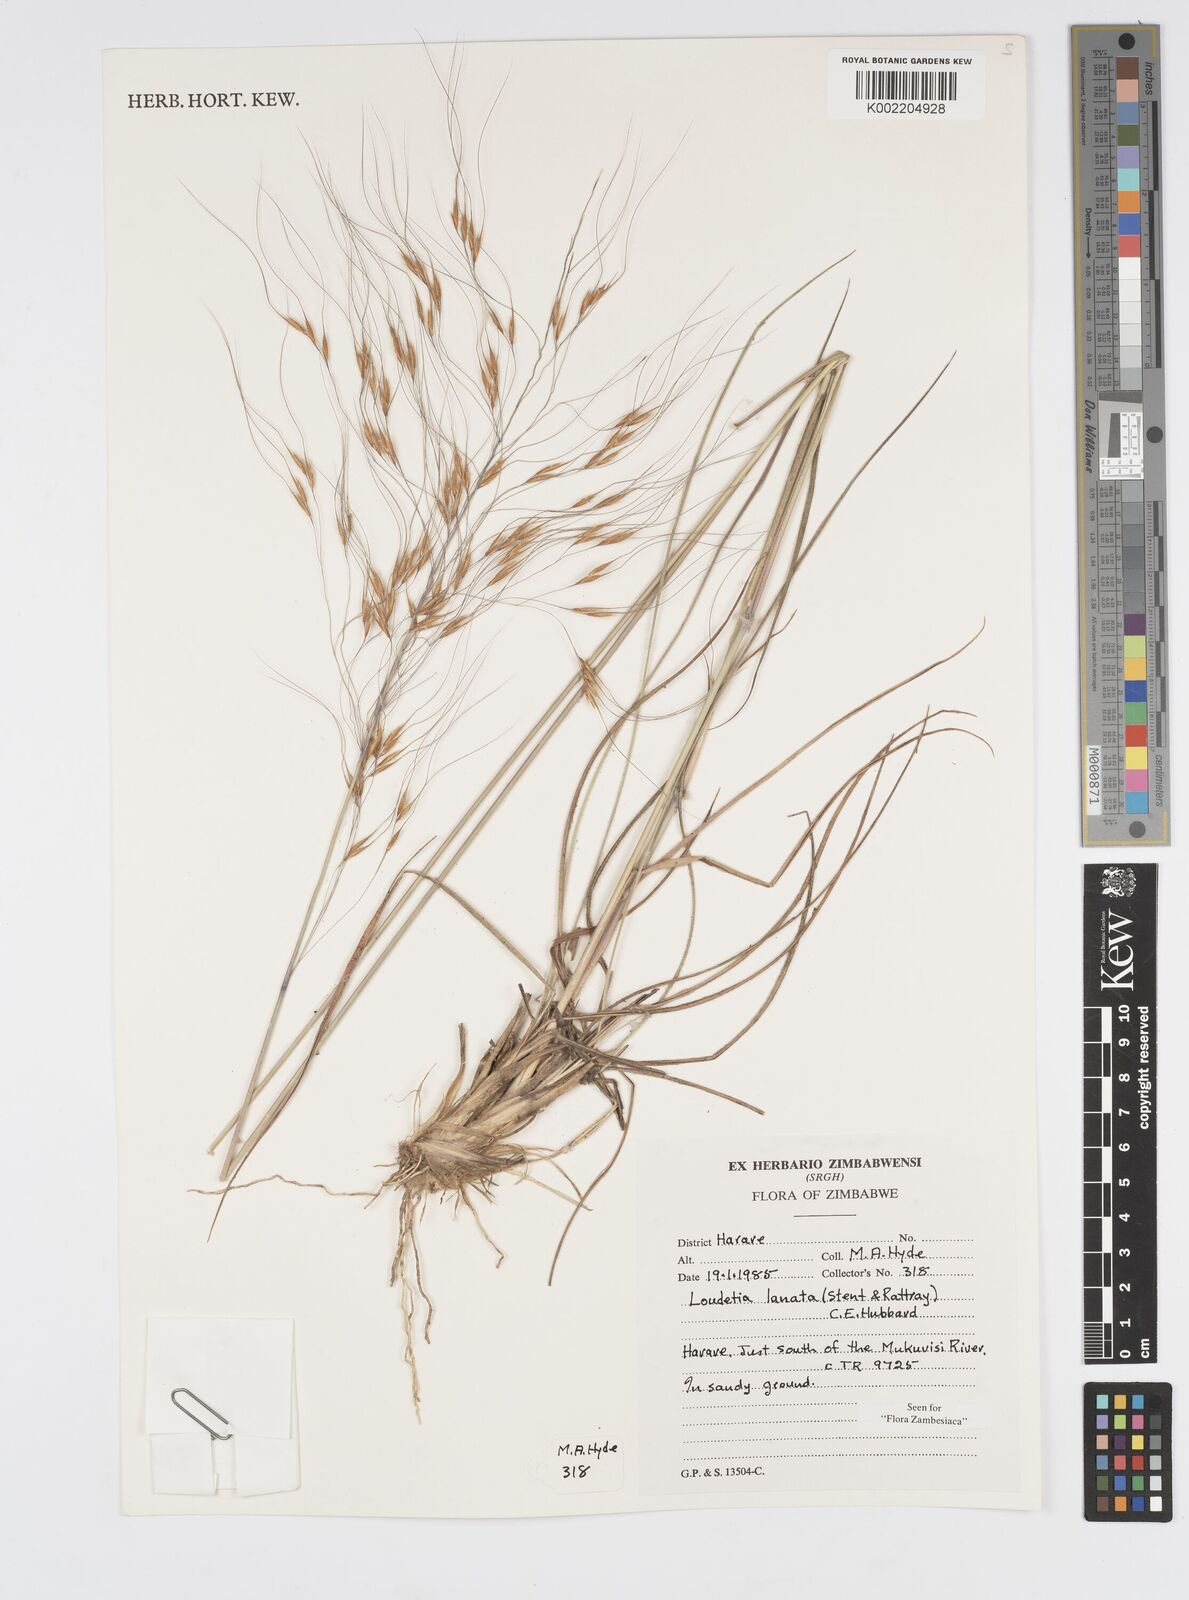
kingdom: Plantae
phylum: Tracheophyta
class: Liliopsida
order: Poales
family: Poaceae
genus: Loudetia
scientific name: Loudetia lanata
